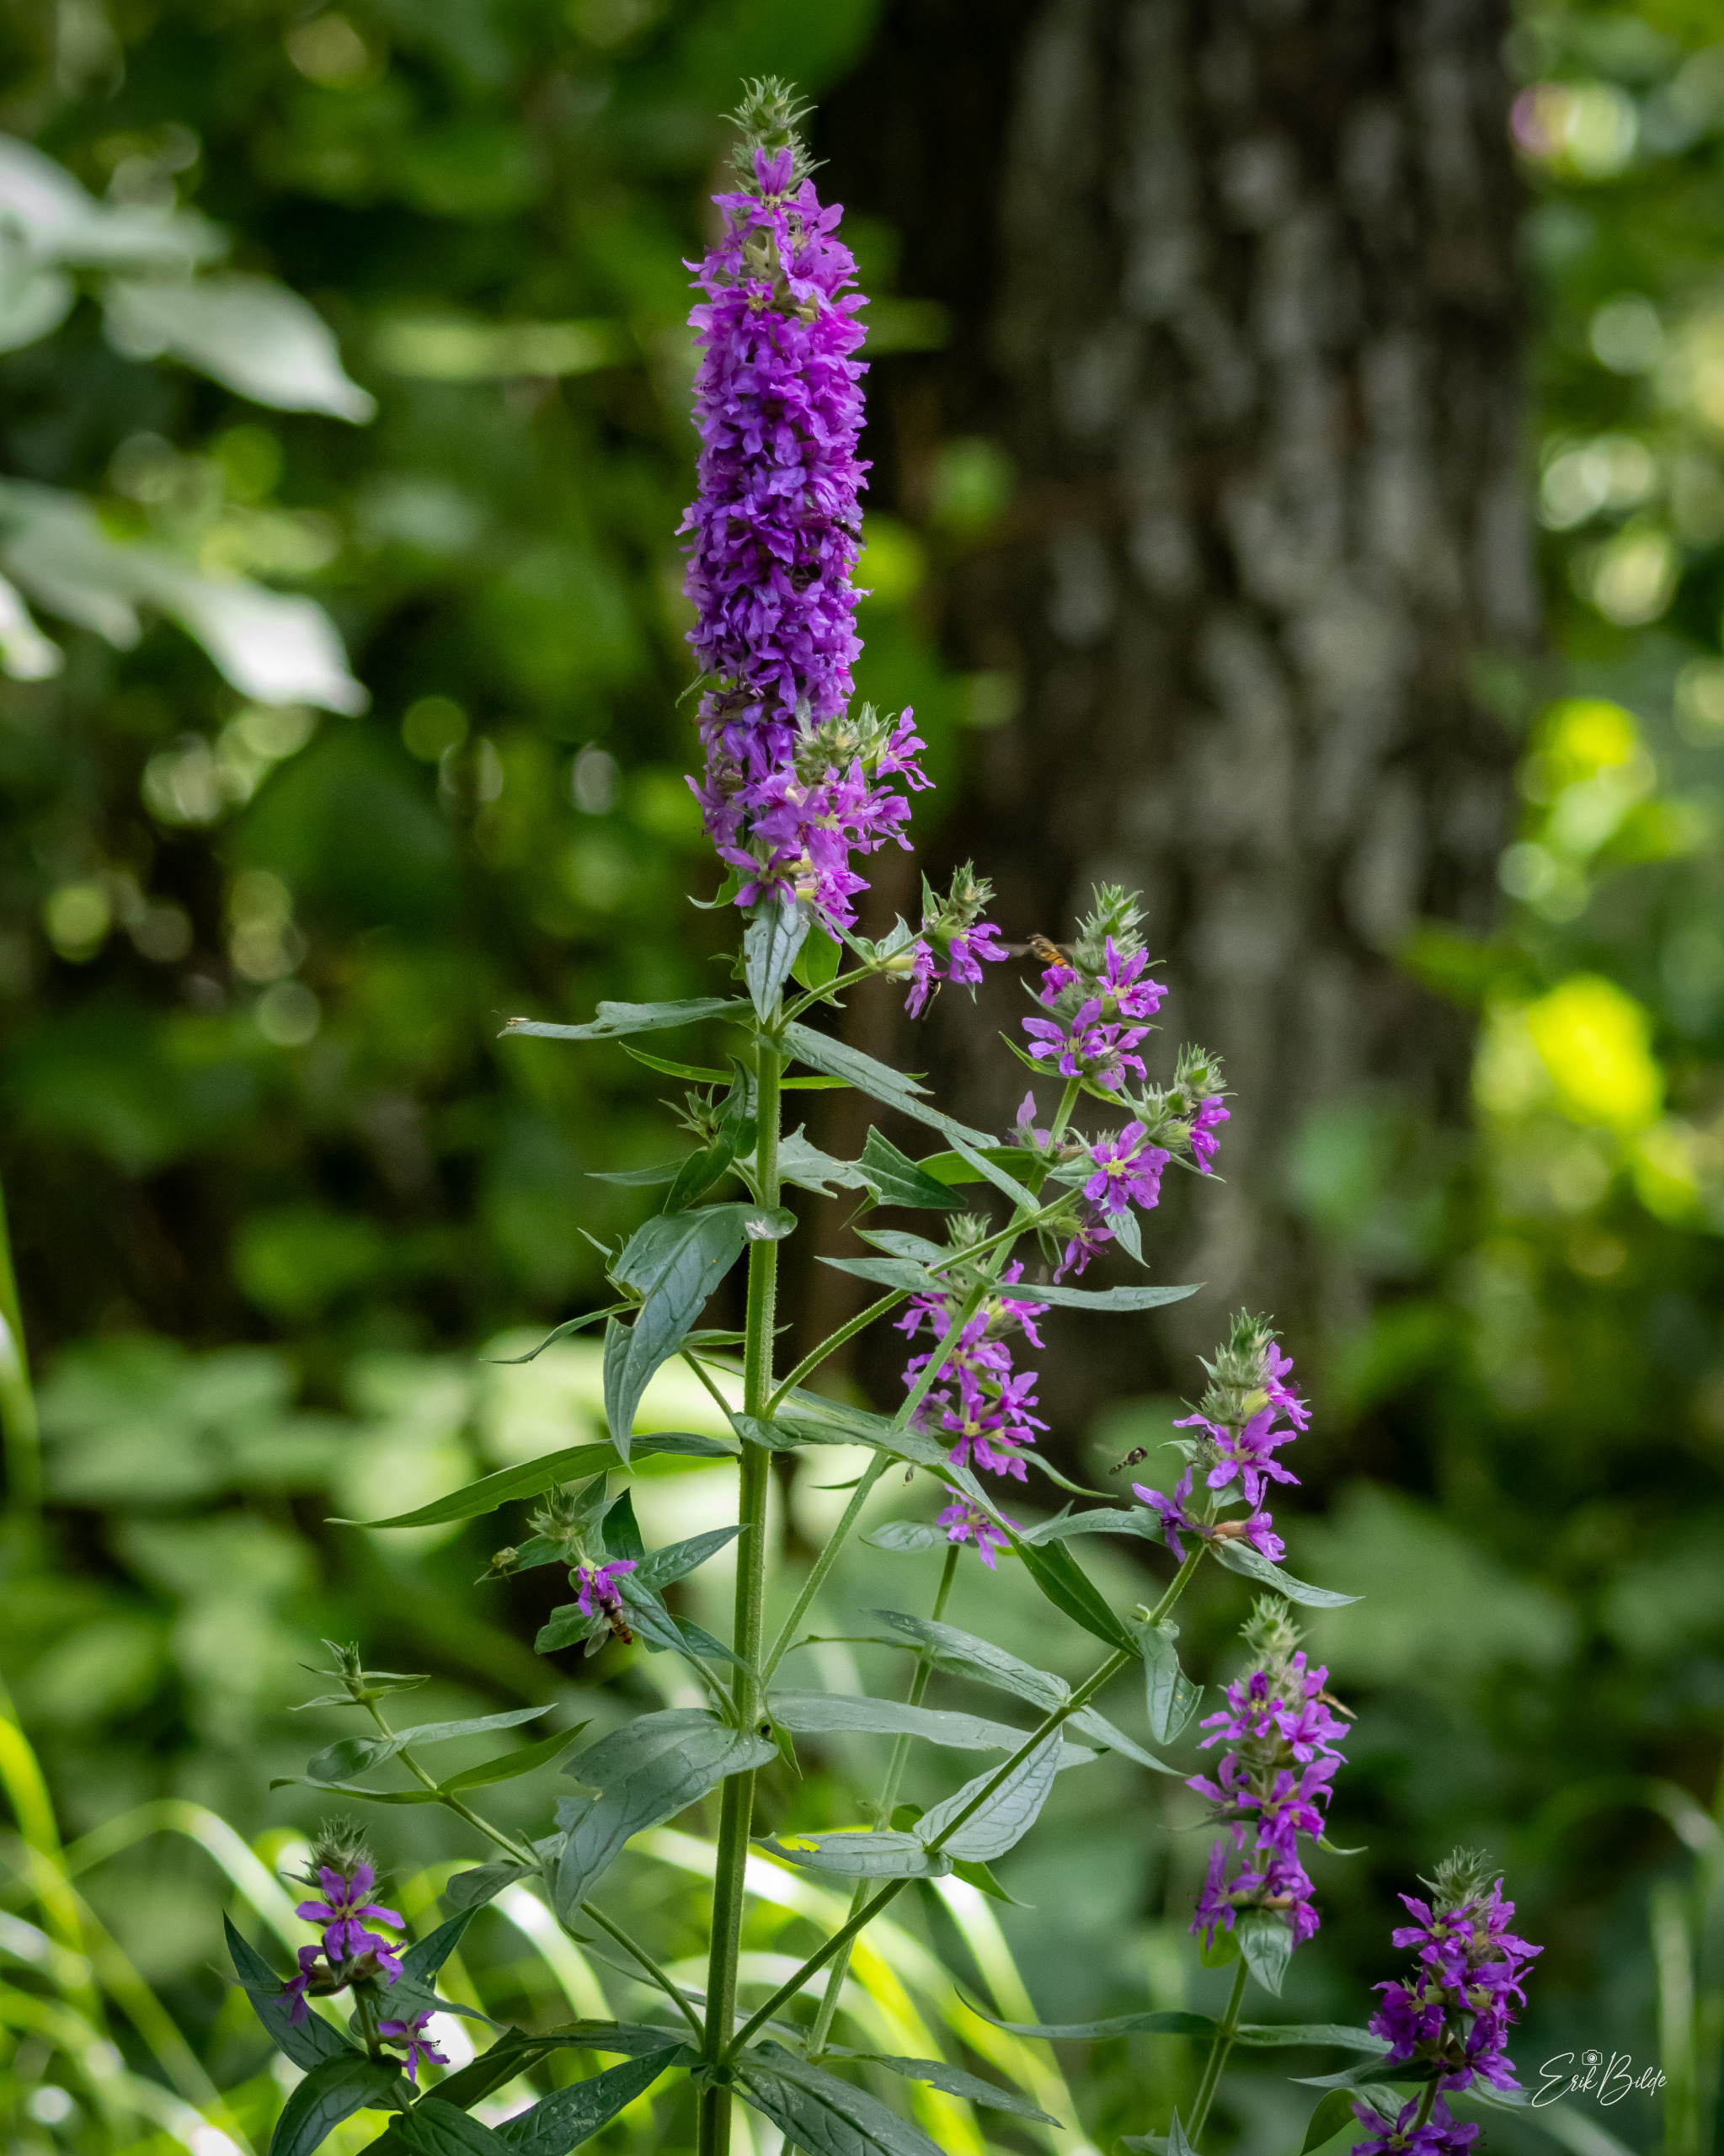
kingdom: Plantae
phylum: Tracheophyta
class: Magnoliopsida
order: Myrtales
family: Lythraceae
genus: Lythrum
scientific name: Lythrum salicaria
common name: Kattehale
